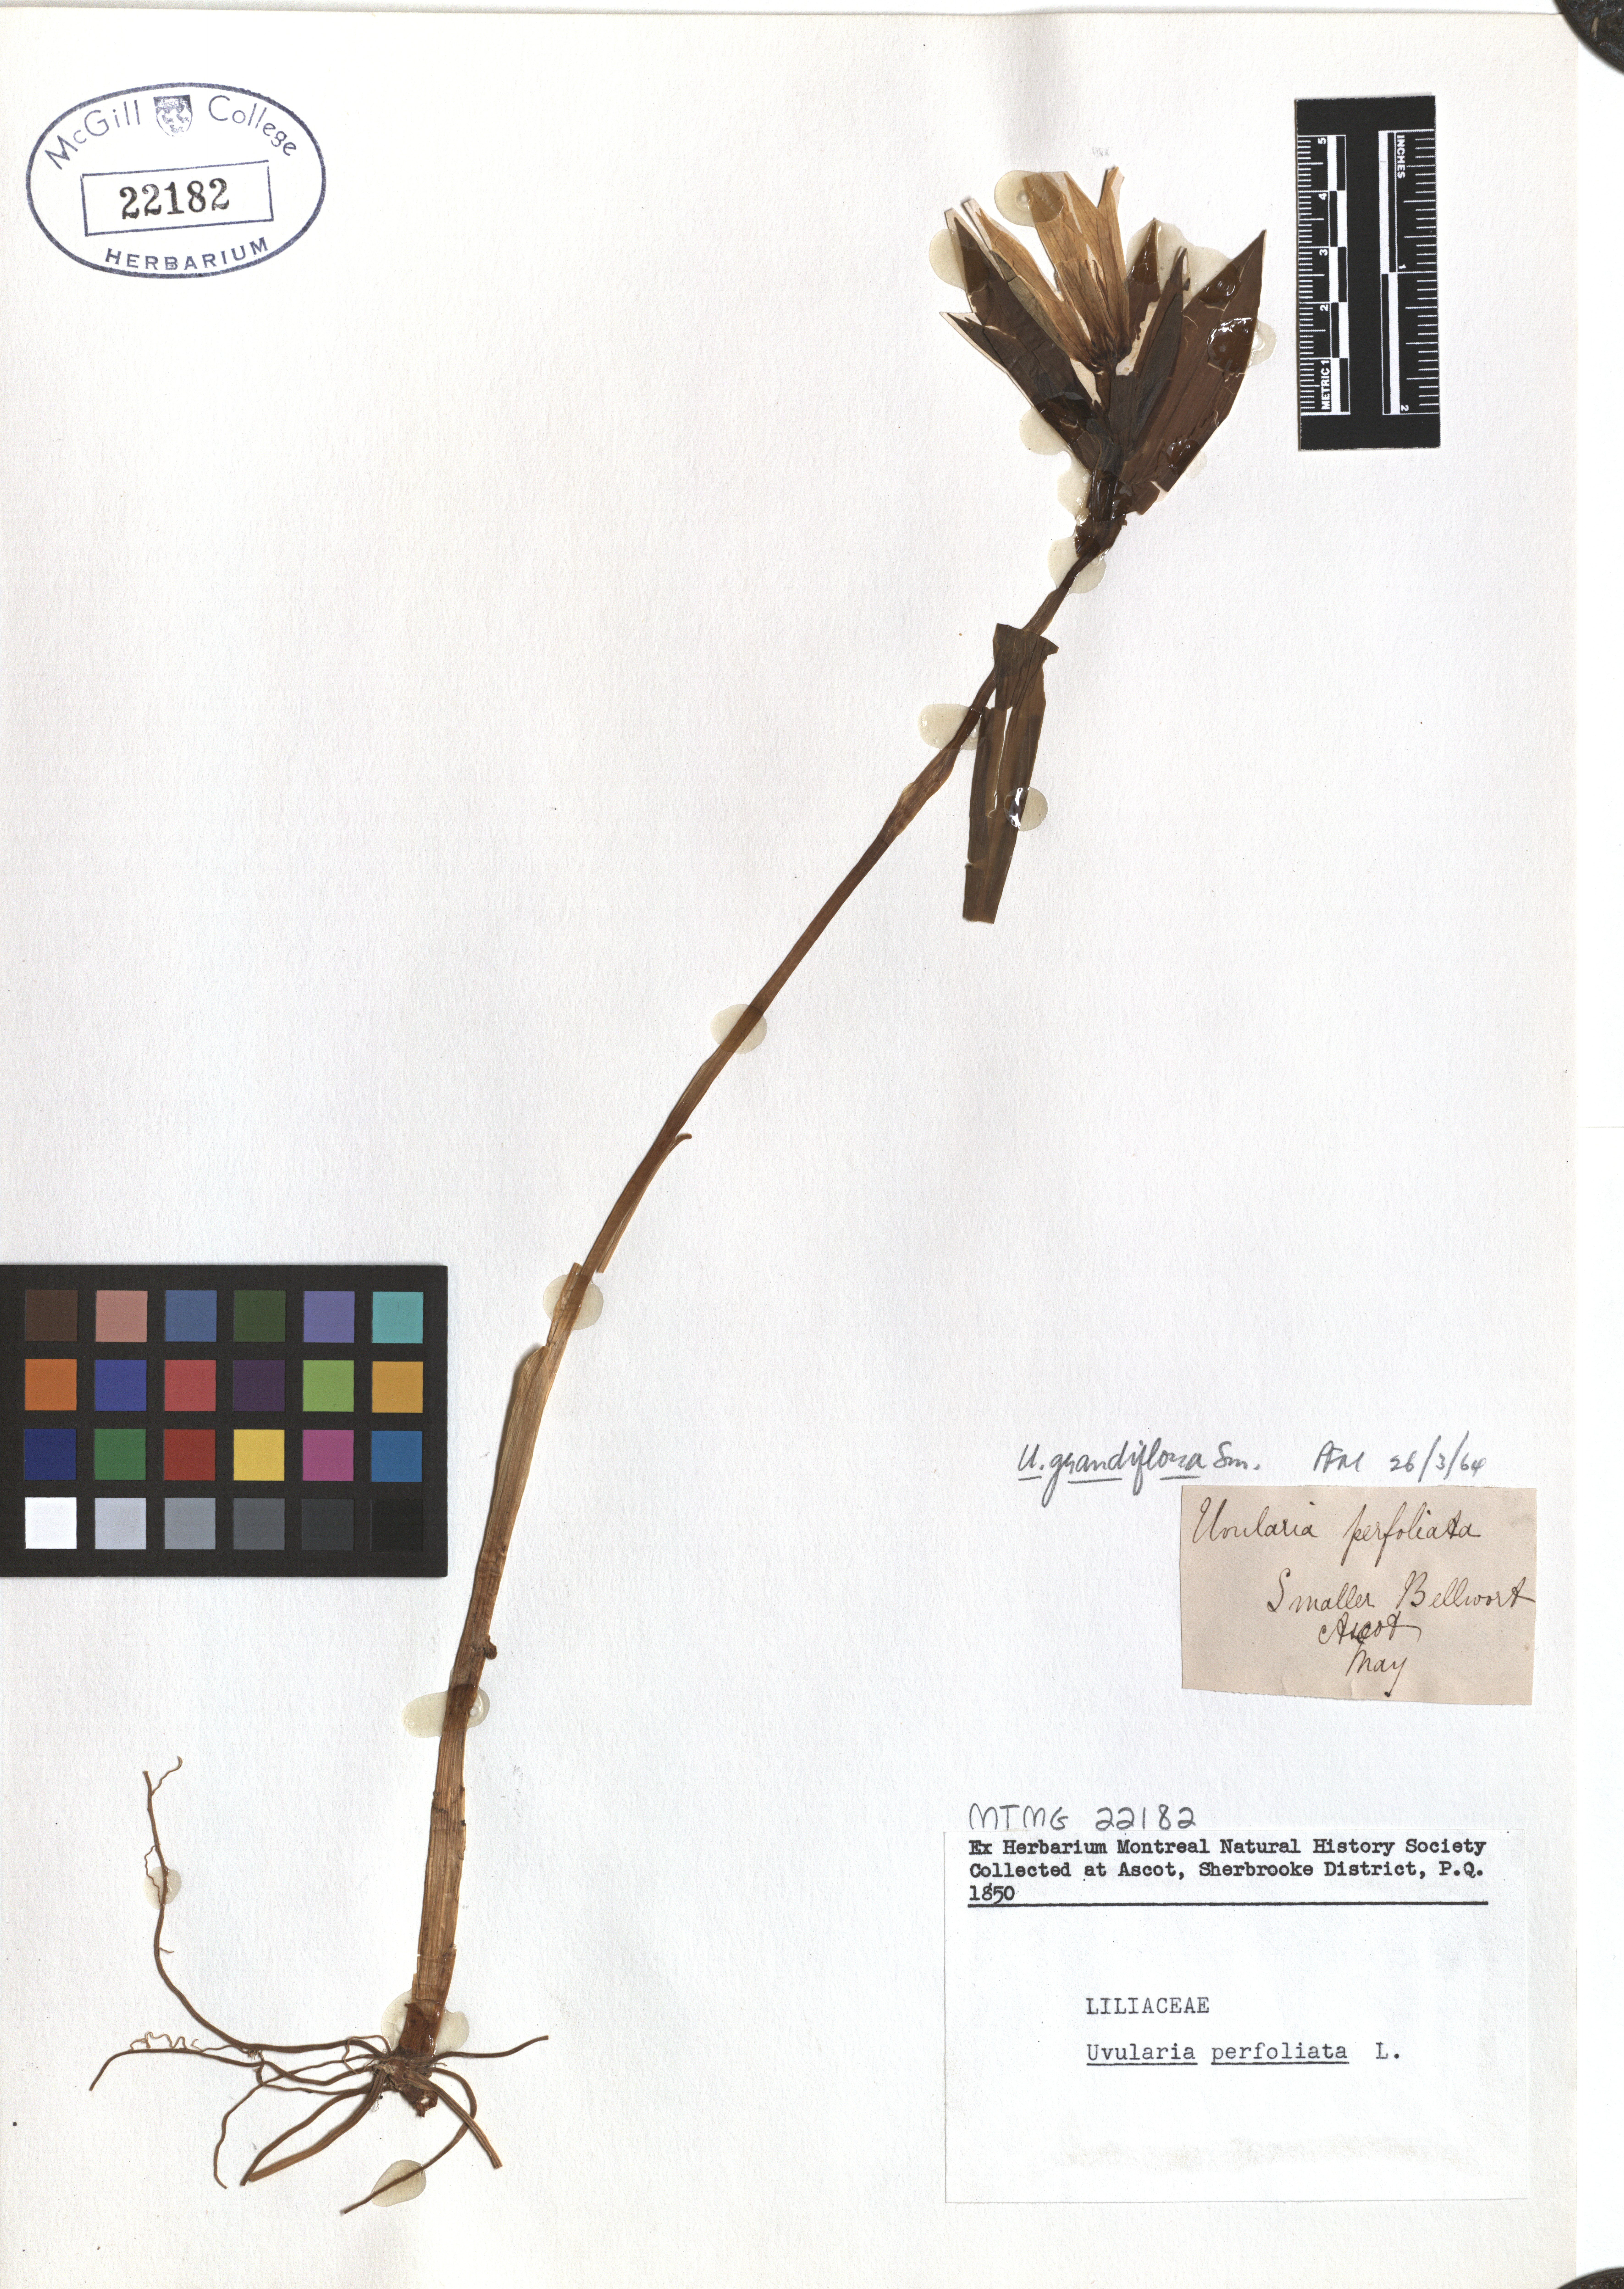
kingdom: Plantae
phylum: Tracheophyta
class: Liliopsida
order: Liliales
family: Colchicaceae
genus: Uvularia
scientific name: Uvularia grandiflora
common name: Bellwort
